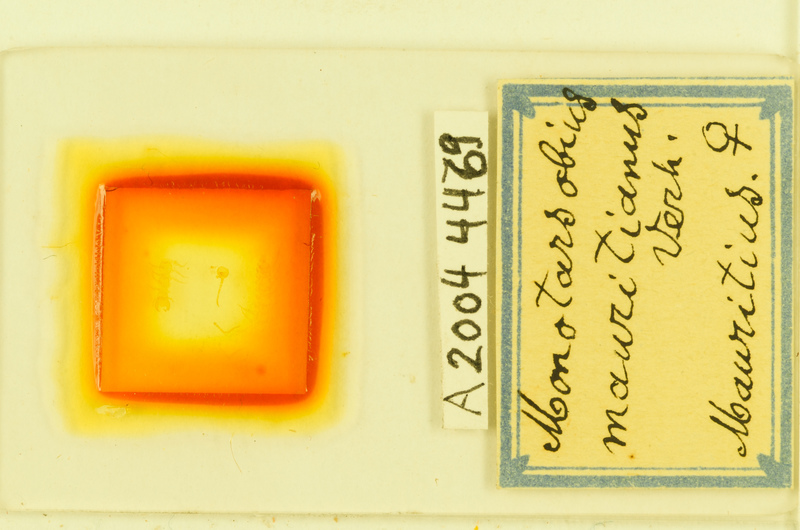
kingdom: Animalia
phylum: Arthropoda
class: Chilopoda
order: Lithobiomorpha
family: Lithobiidae
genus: Monotarsobius
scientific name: Monotarsobius
